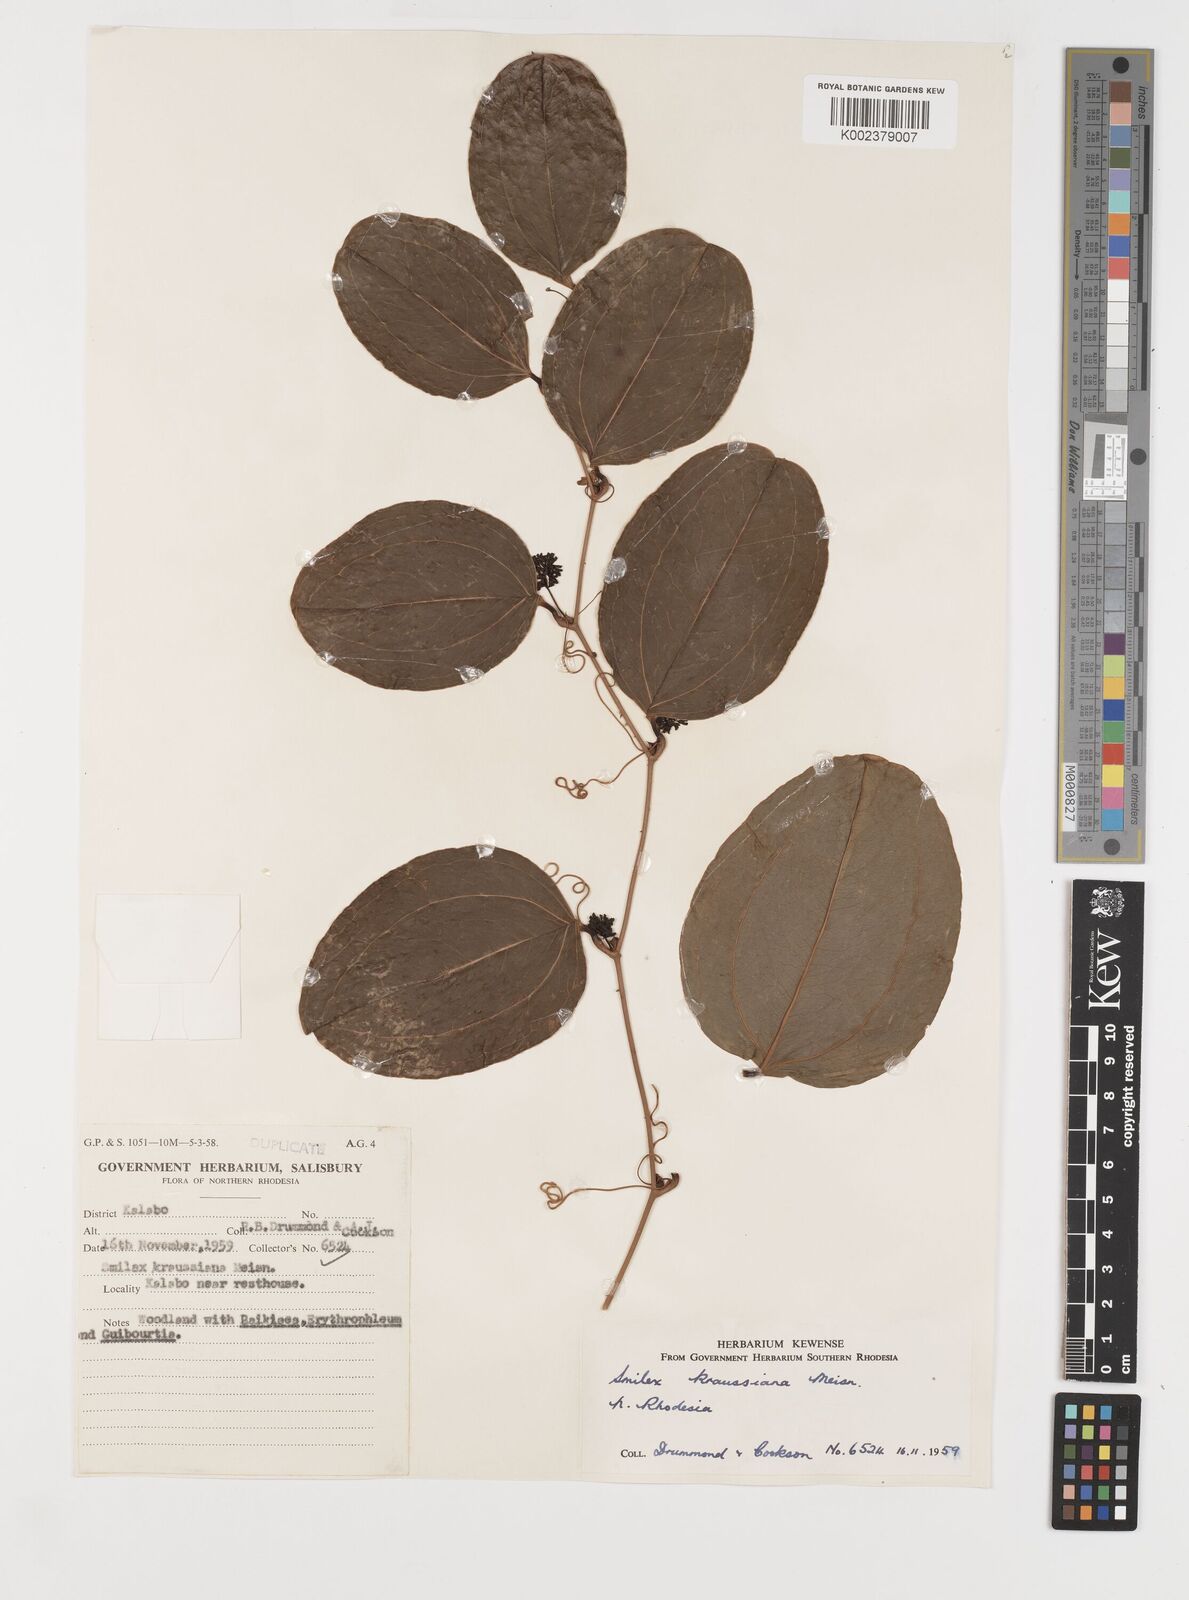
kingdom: Plantae
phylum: Tracheophyta
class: Liliopsida
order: Liliales
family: Smilacaceae
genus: Smilax
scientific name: Smilax anceps
